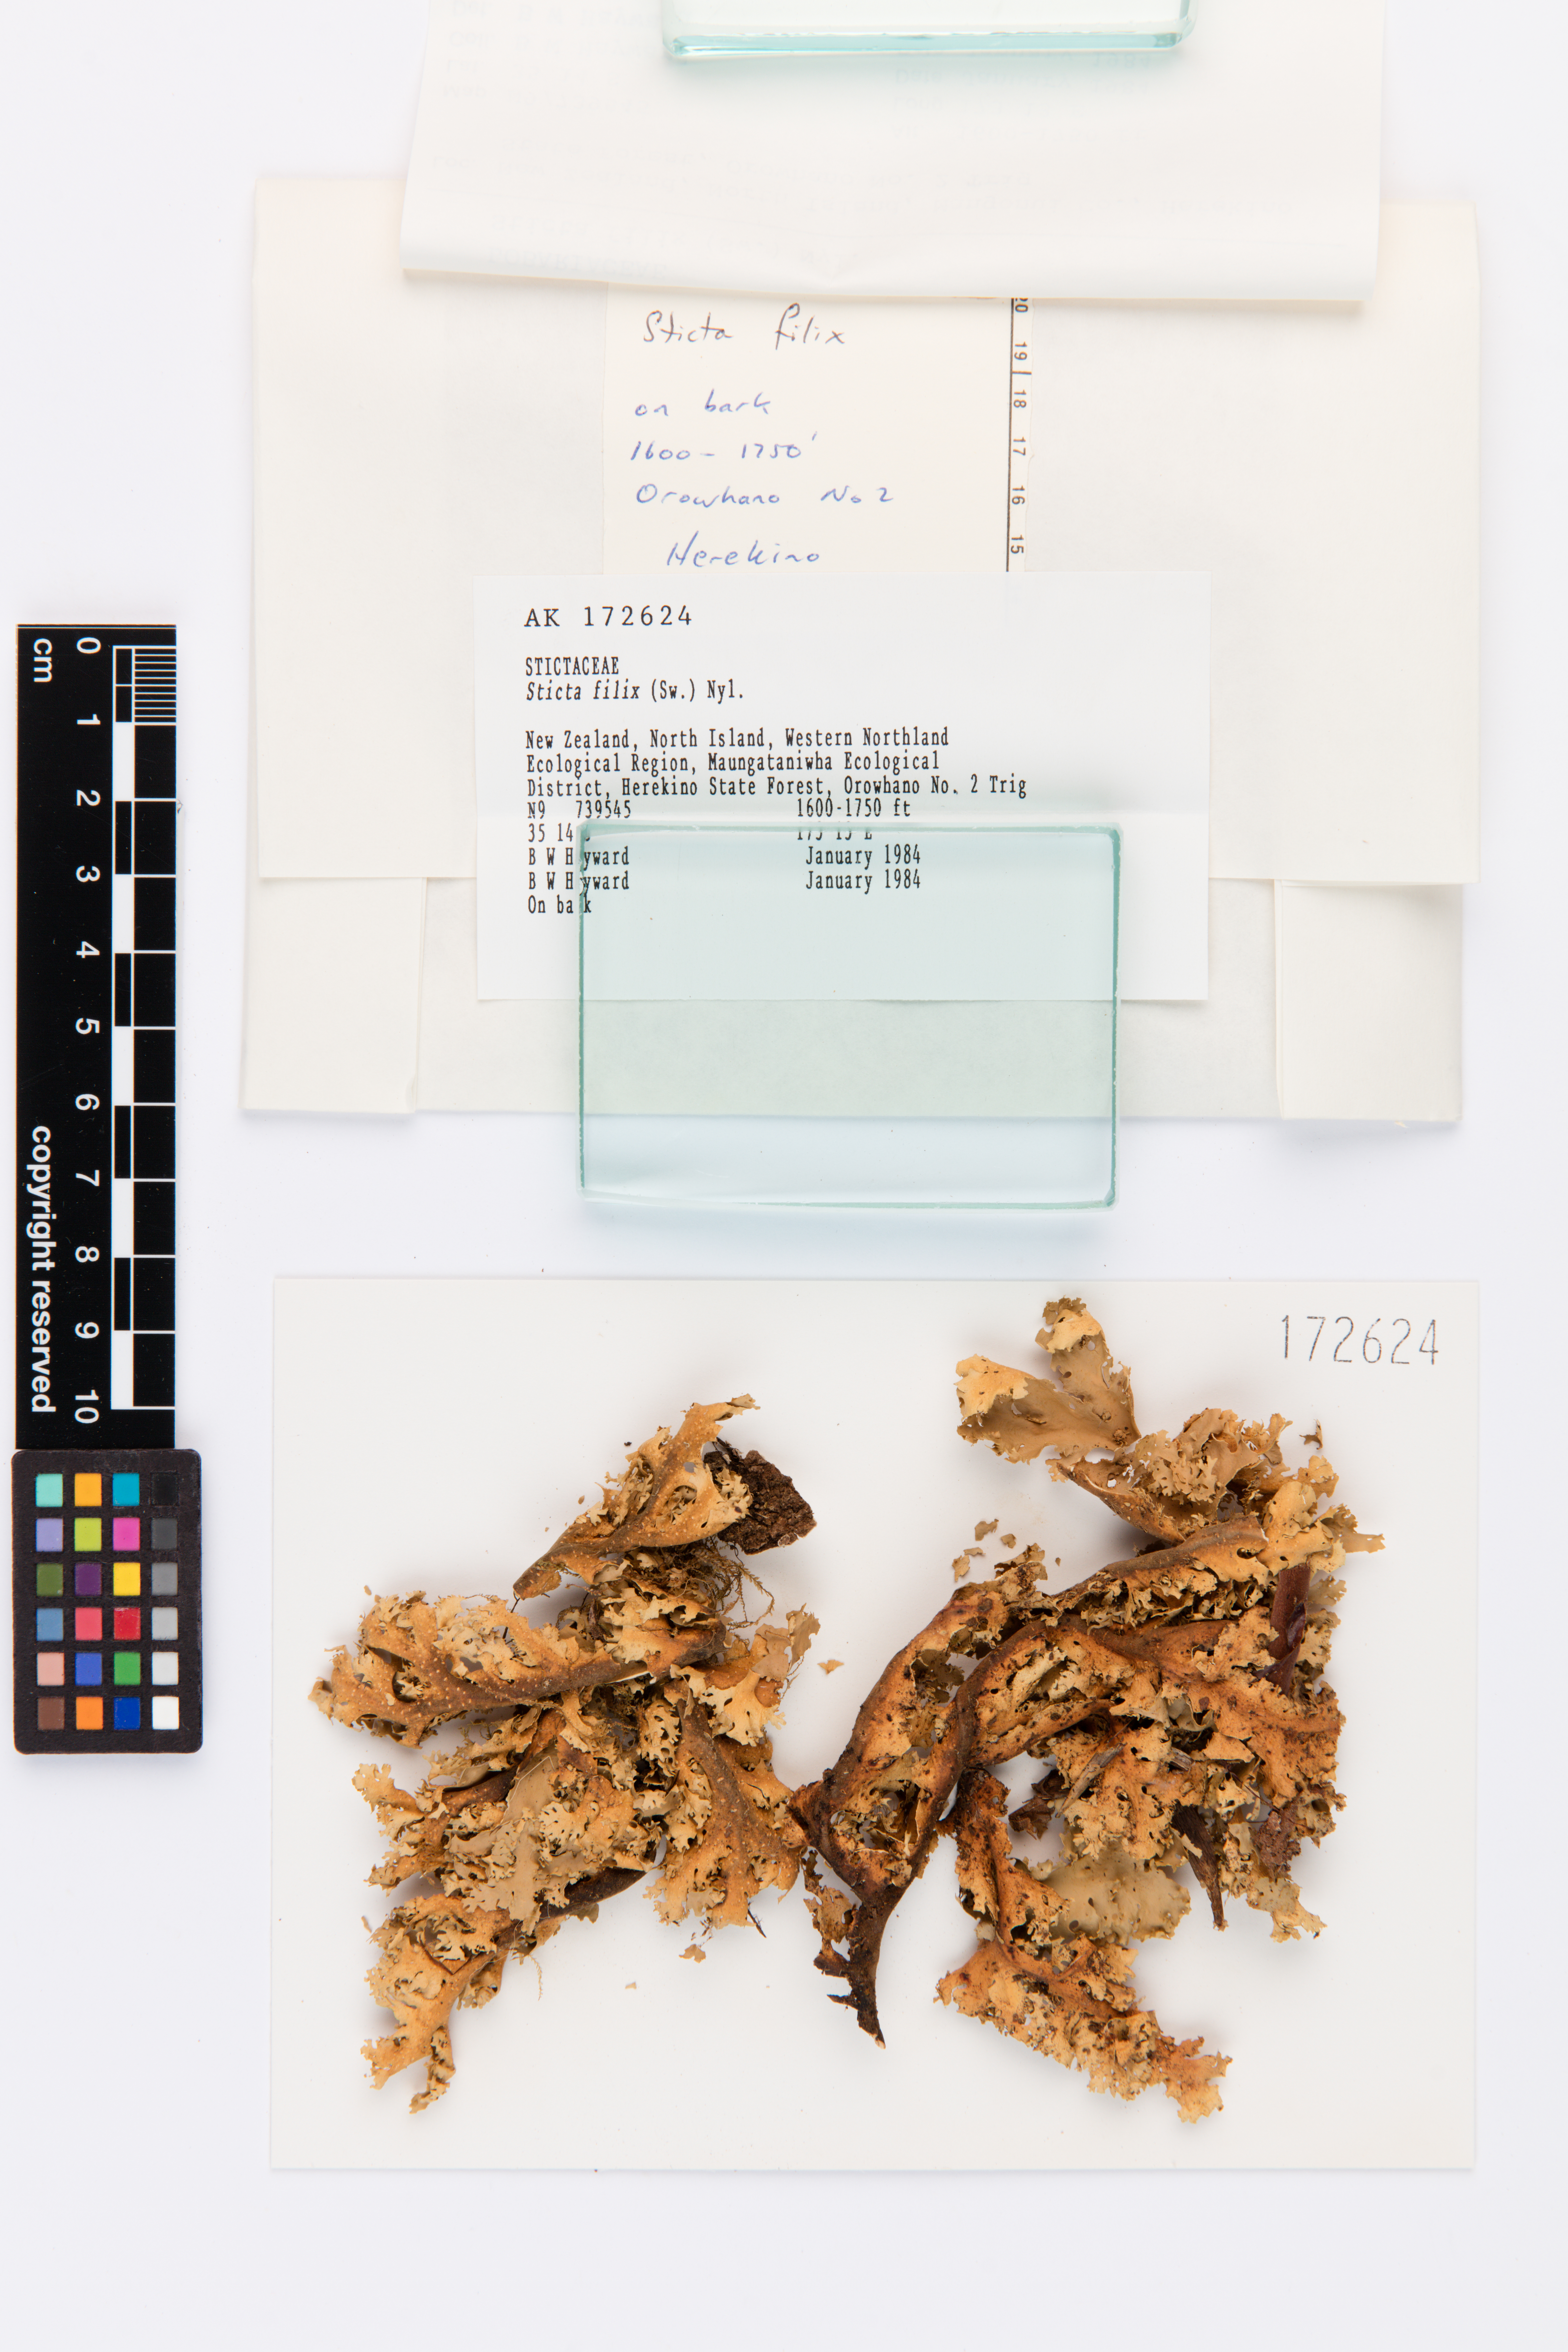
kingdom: Fungi
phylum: Ascomycota
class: Lecanoromycetes
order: Peltigerales
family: Lobariaceae
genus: Sticta
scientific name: Sticta filix
